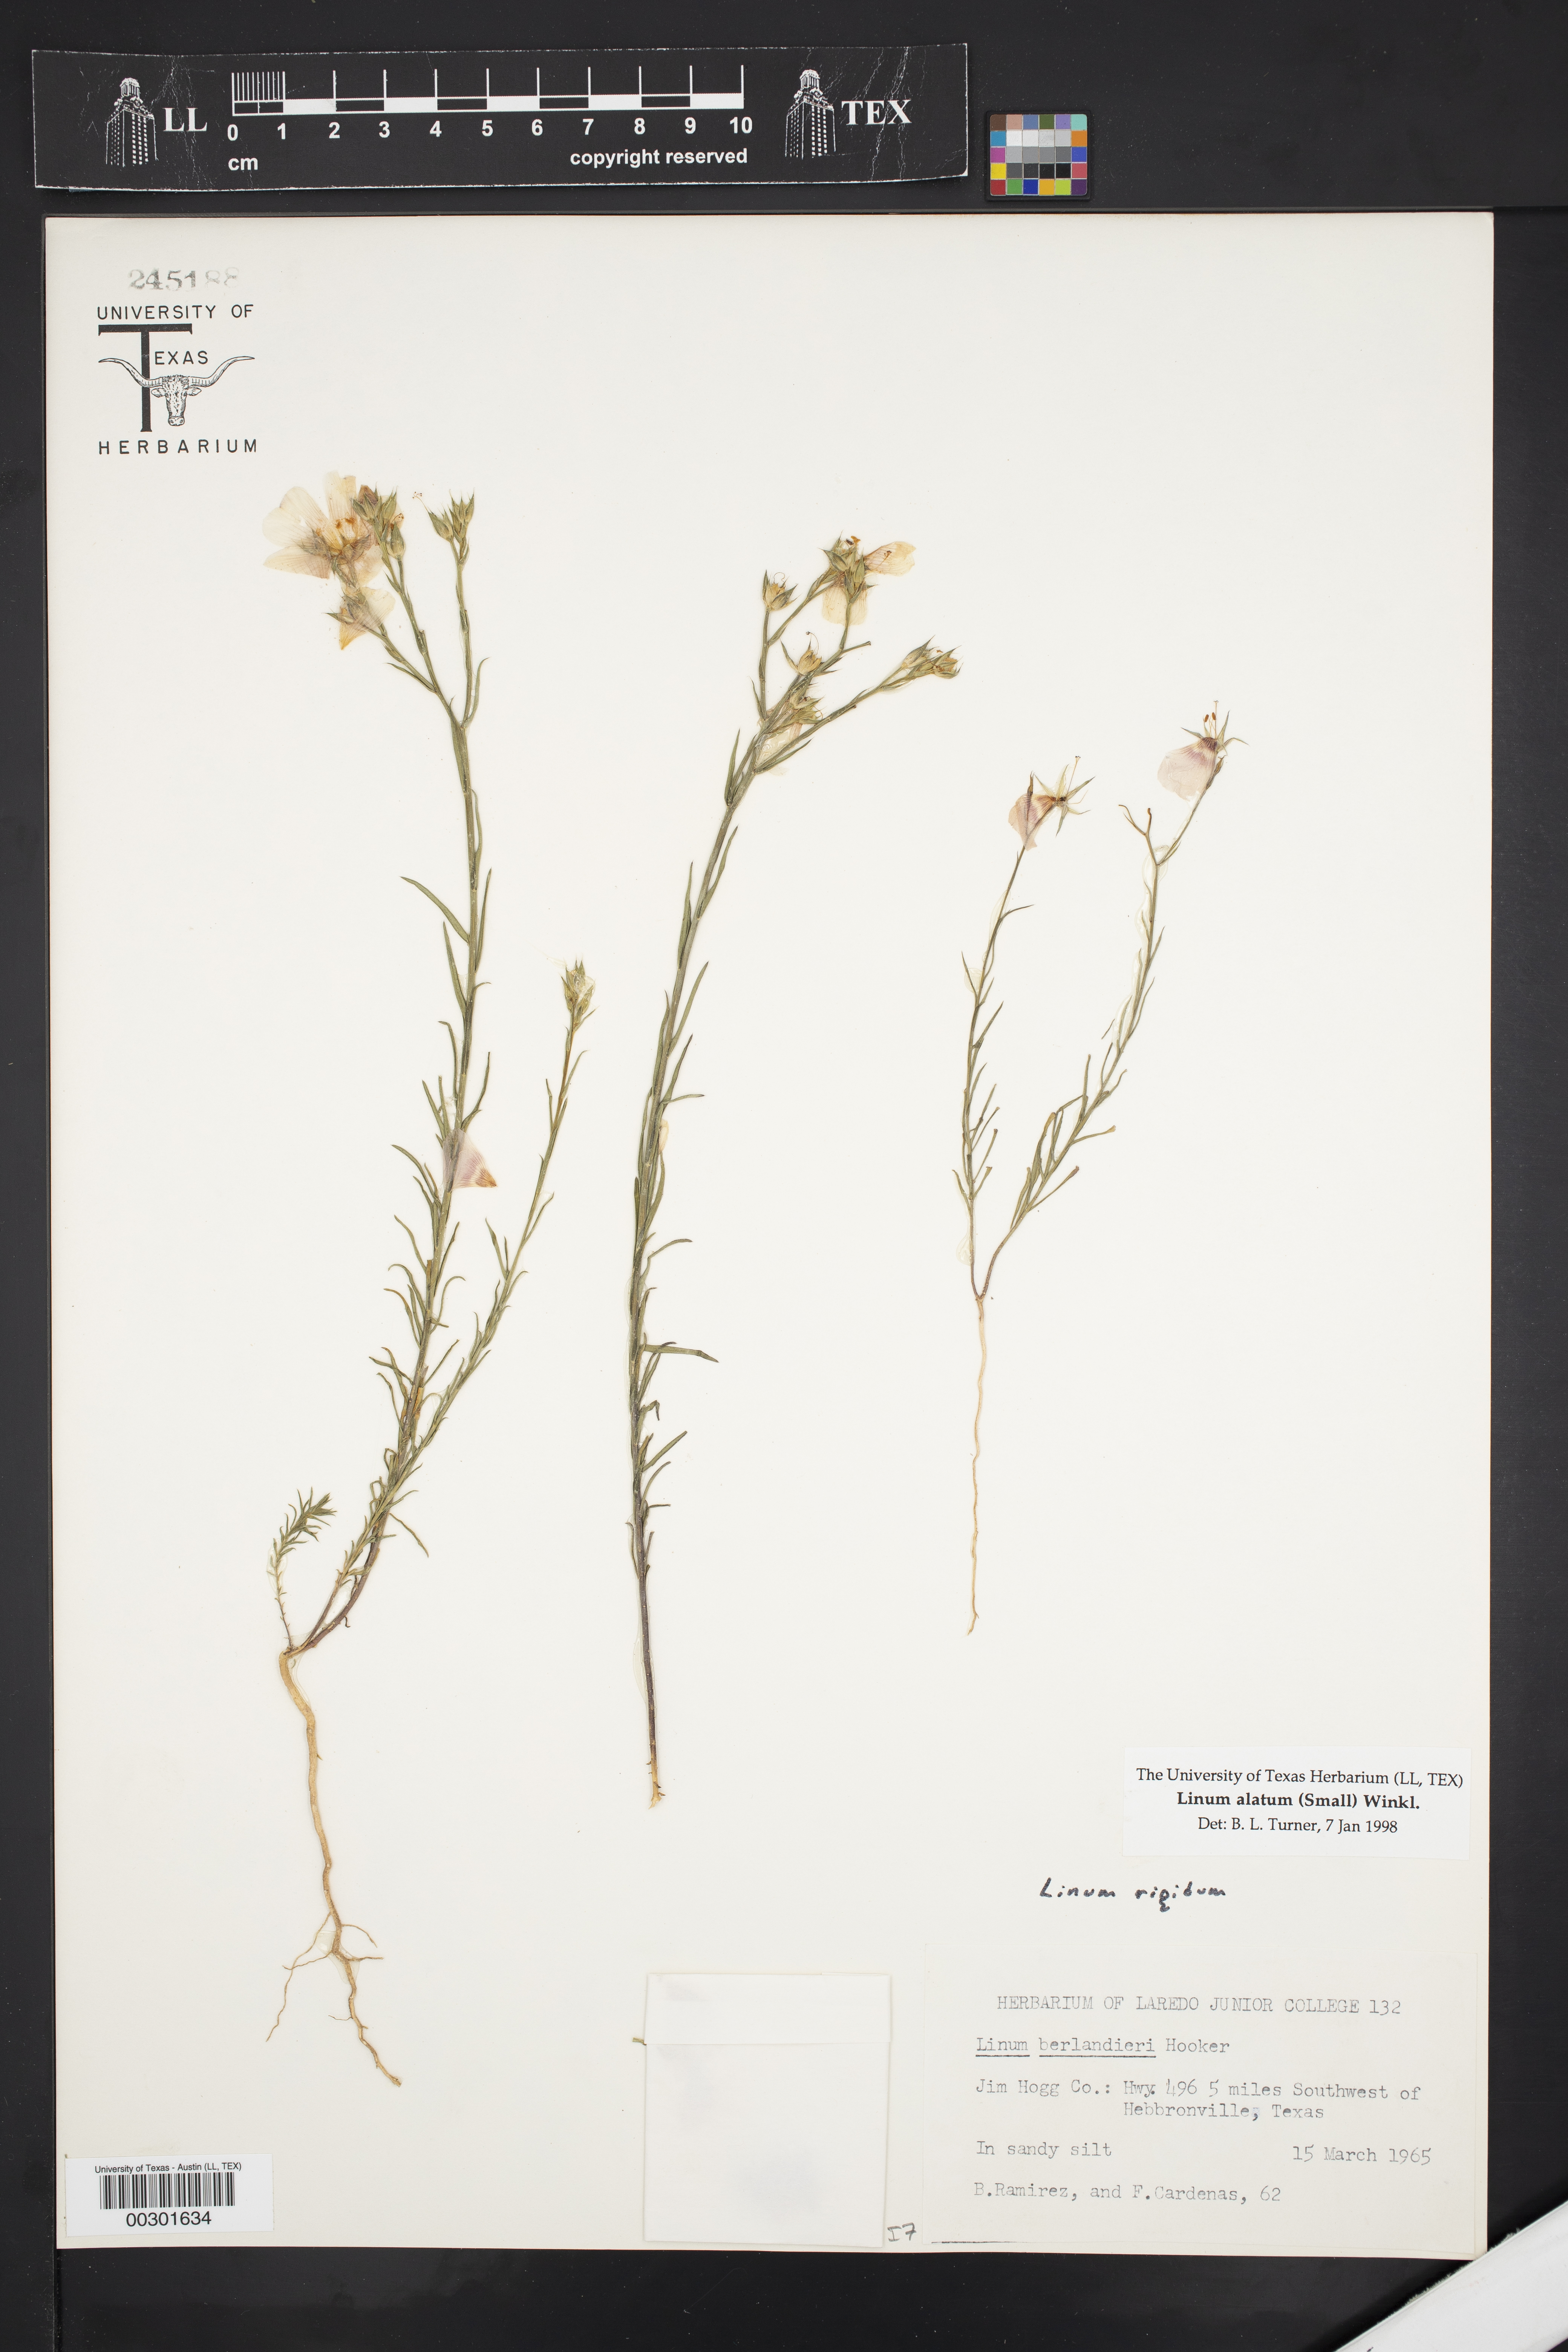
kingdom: Plantae
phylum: Tracheophyta
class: Magnoliopsida
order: Malpighiales
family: Linaceae
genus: Linum
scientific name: Linum alatum
